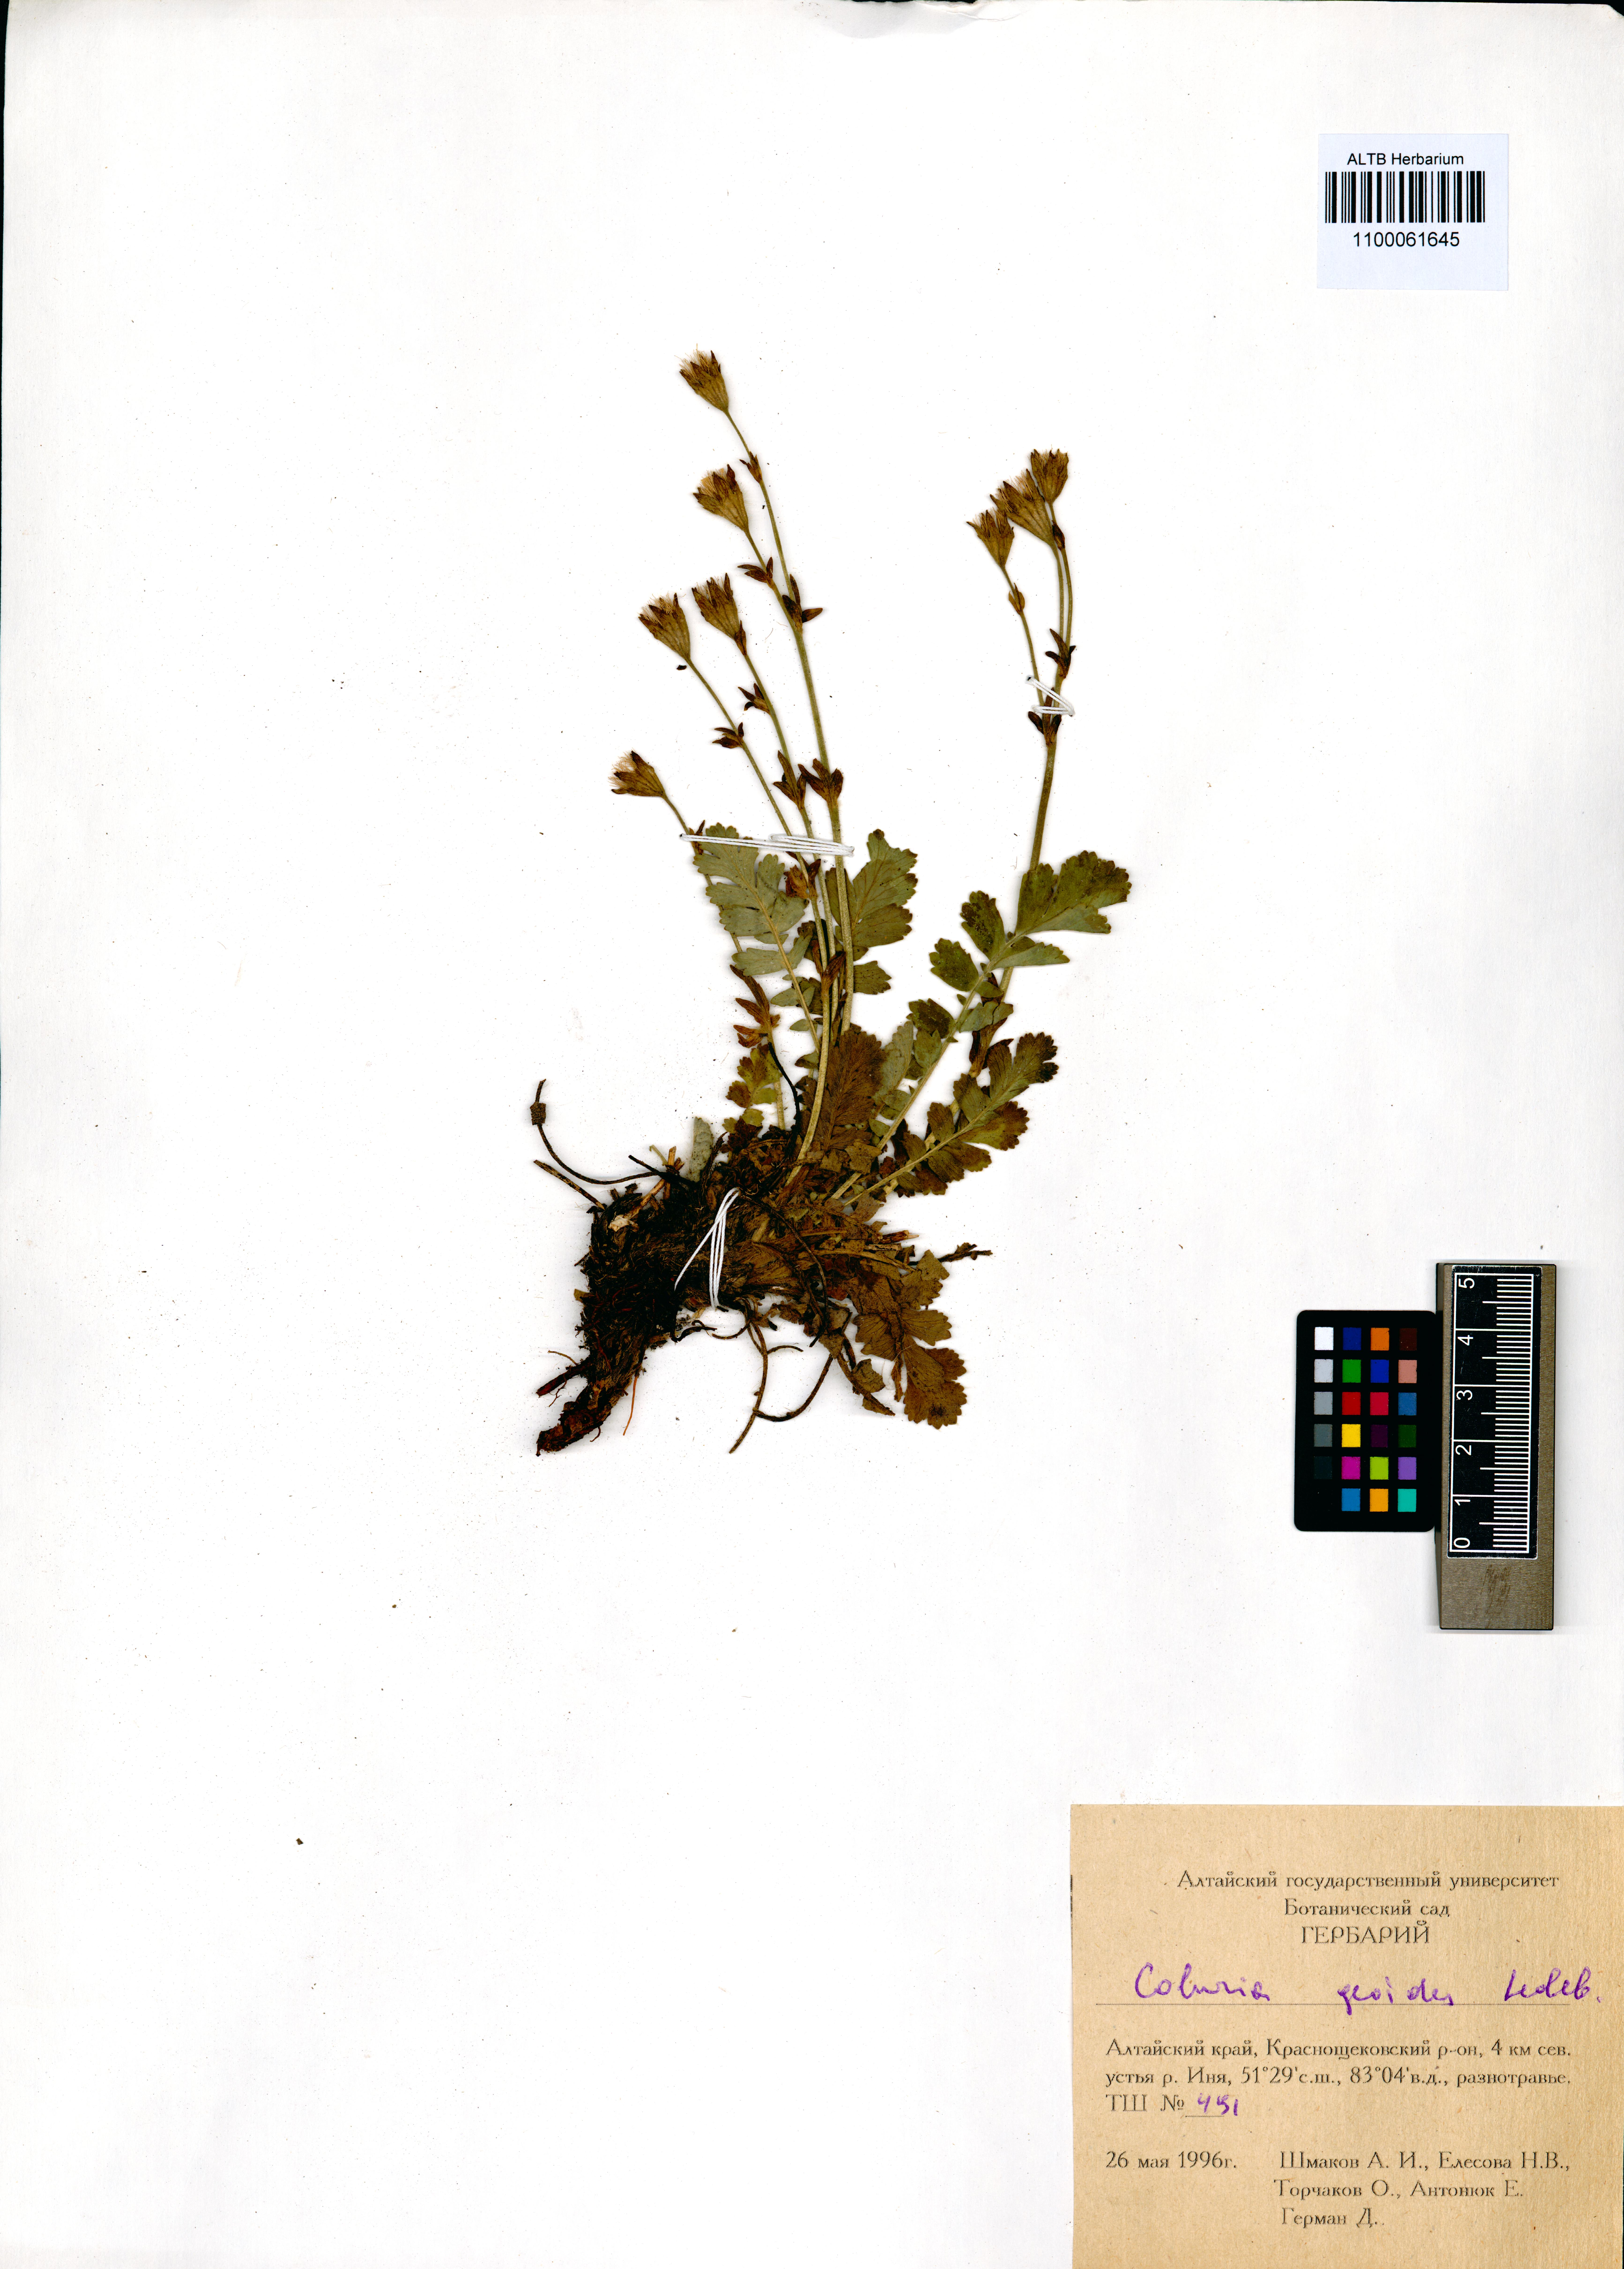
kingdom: Plantae
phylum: Tracheophyta
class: Magnoliopsida
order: Rosales
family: Rosaceae
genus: Geum
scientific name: Geum geoides
